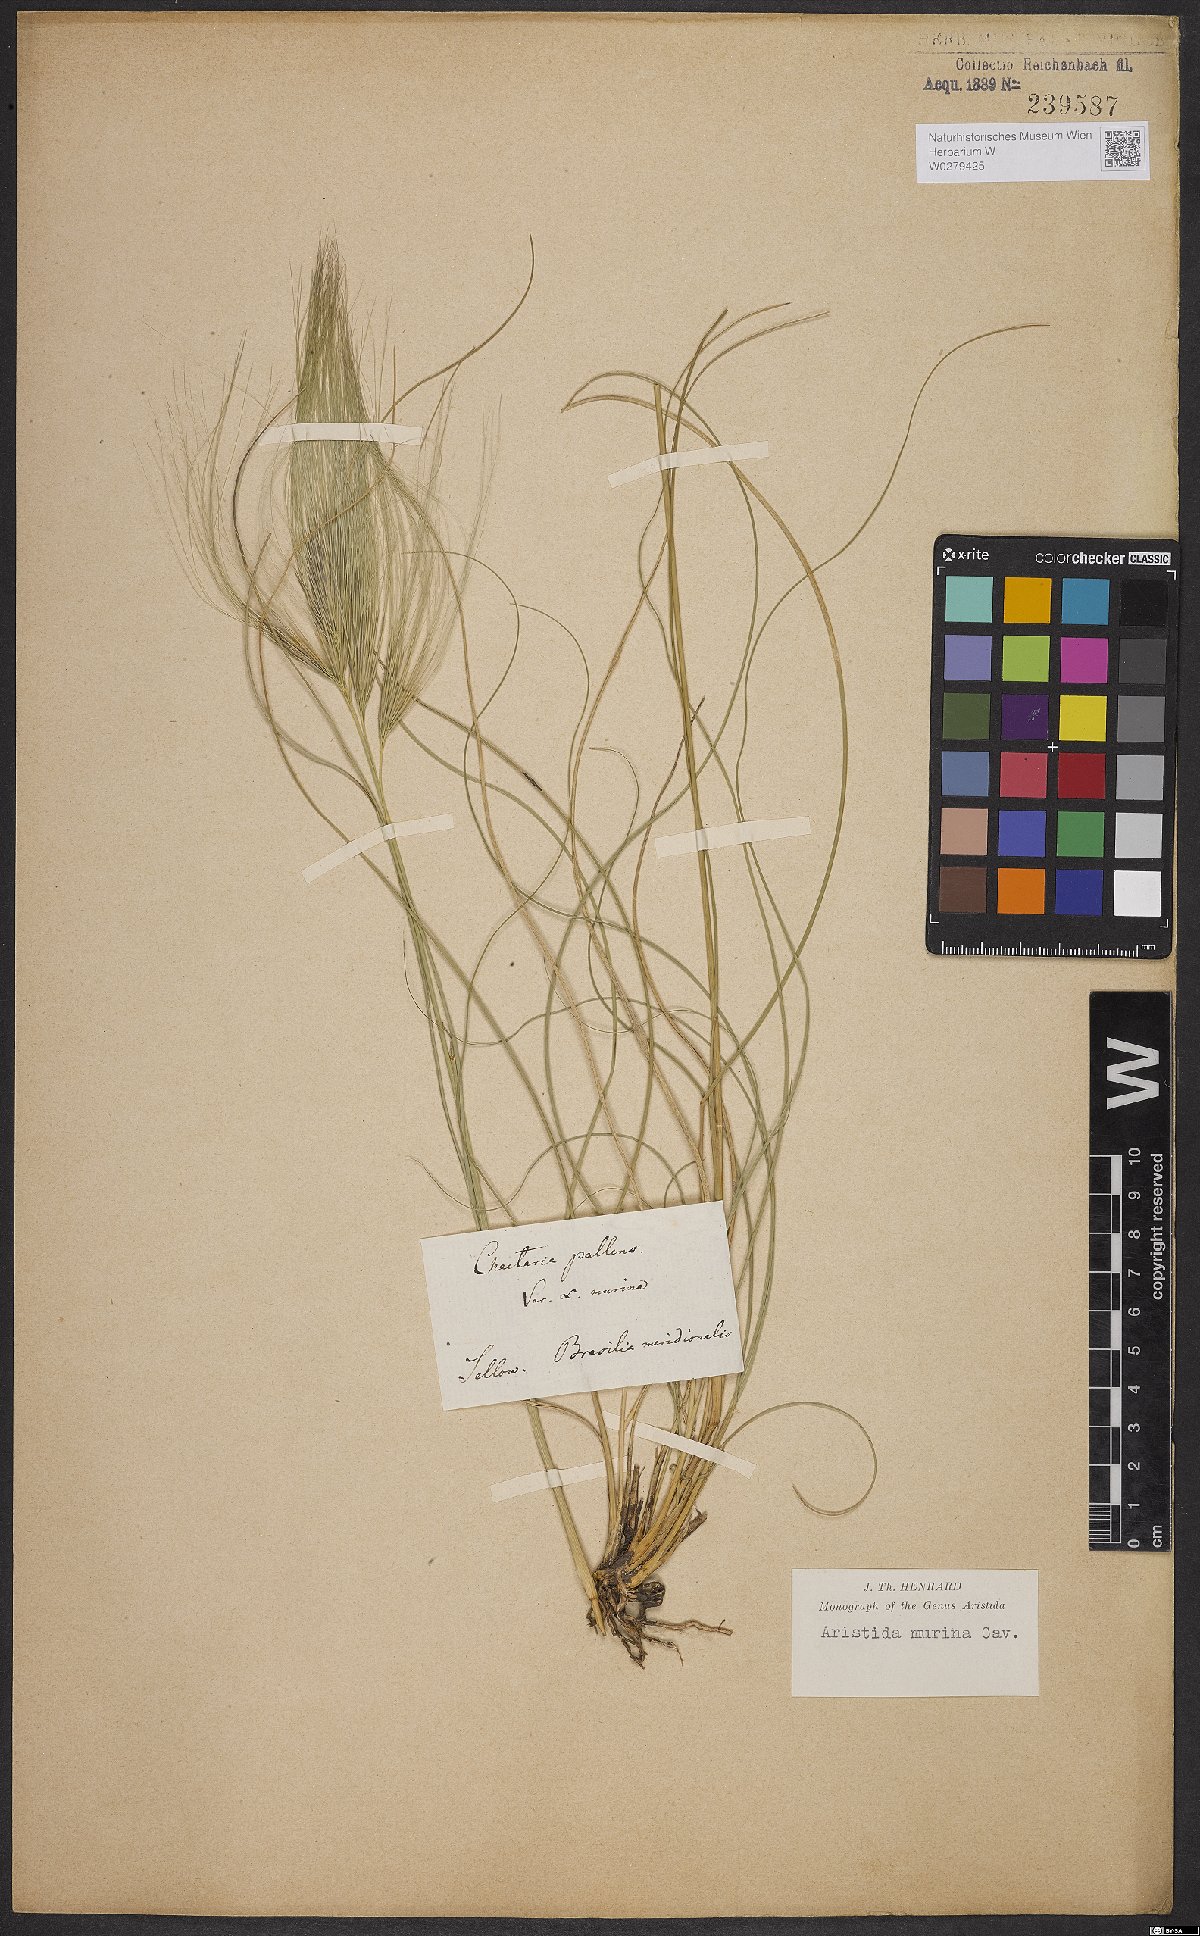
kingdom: Plantae
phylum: Tracheophyta
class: Liliopsida
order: Poales
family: Poaceae
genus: Aristida
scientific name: Aristida murina
